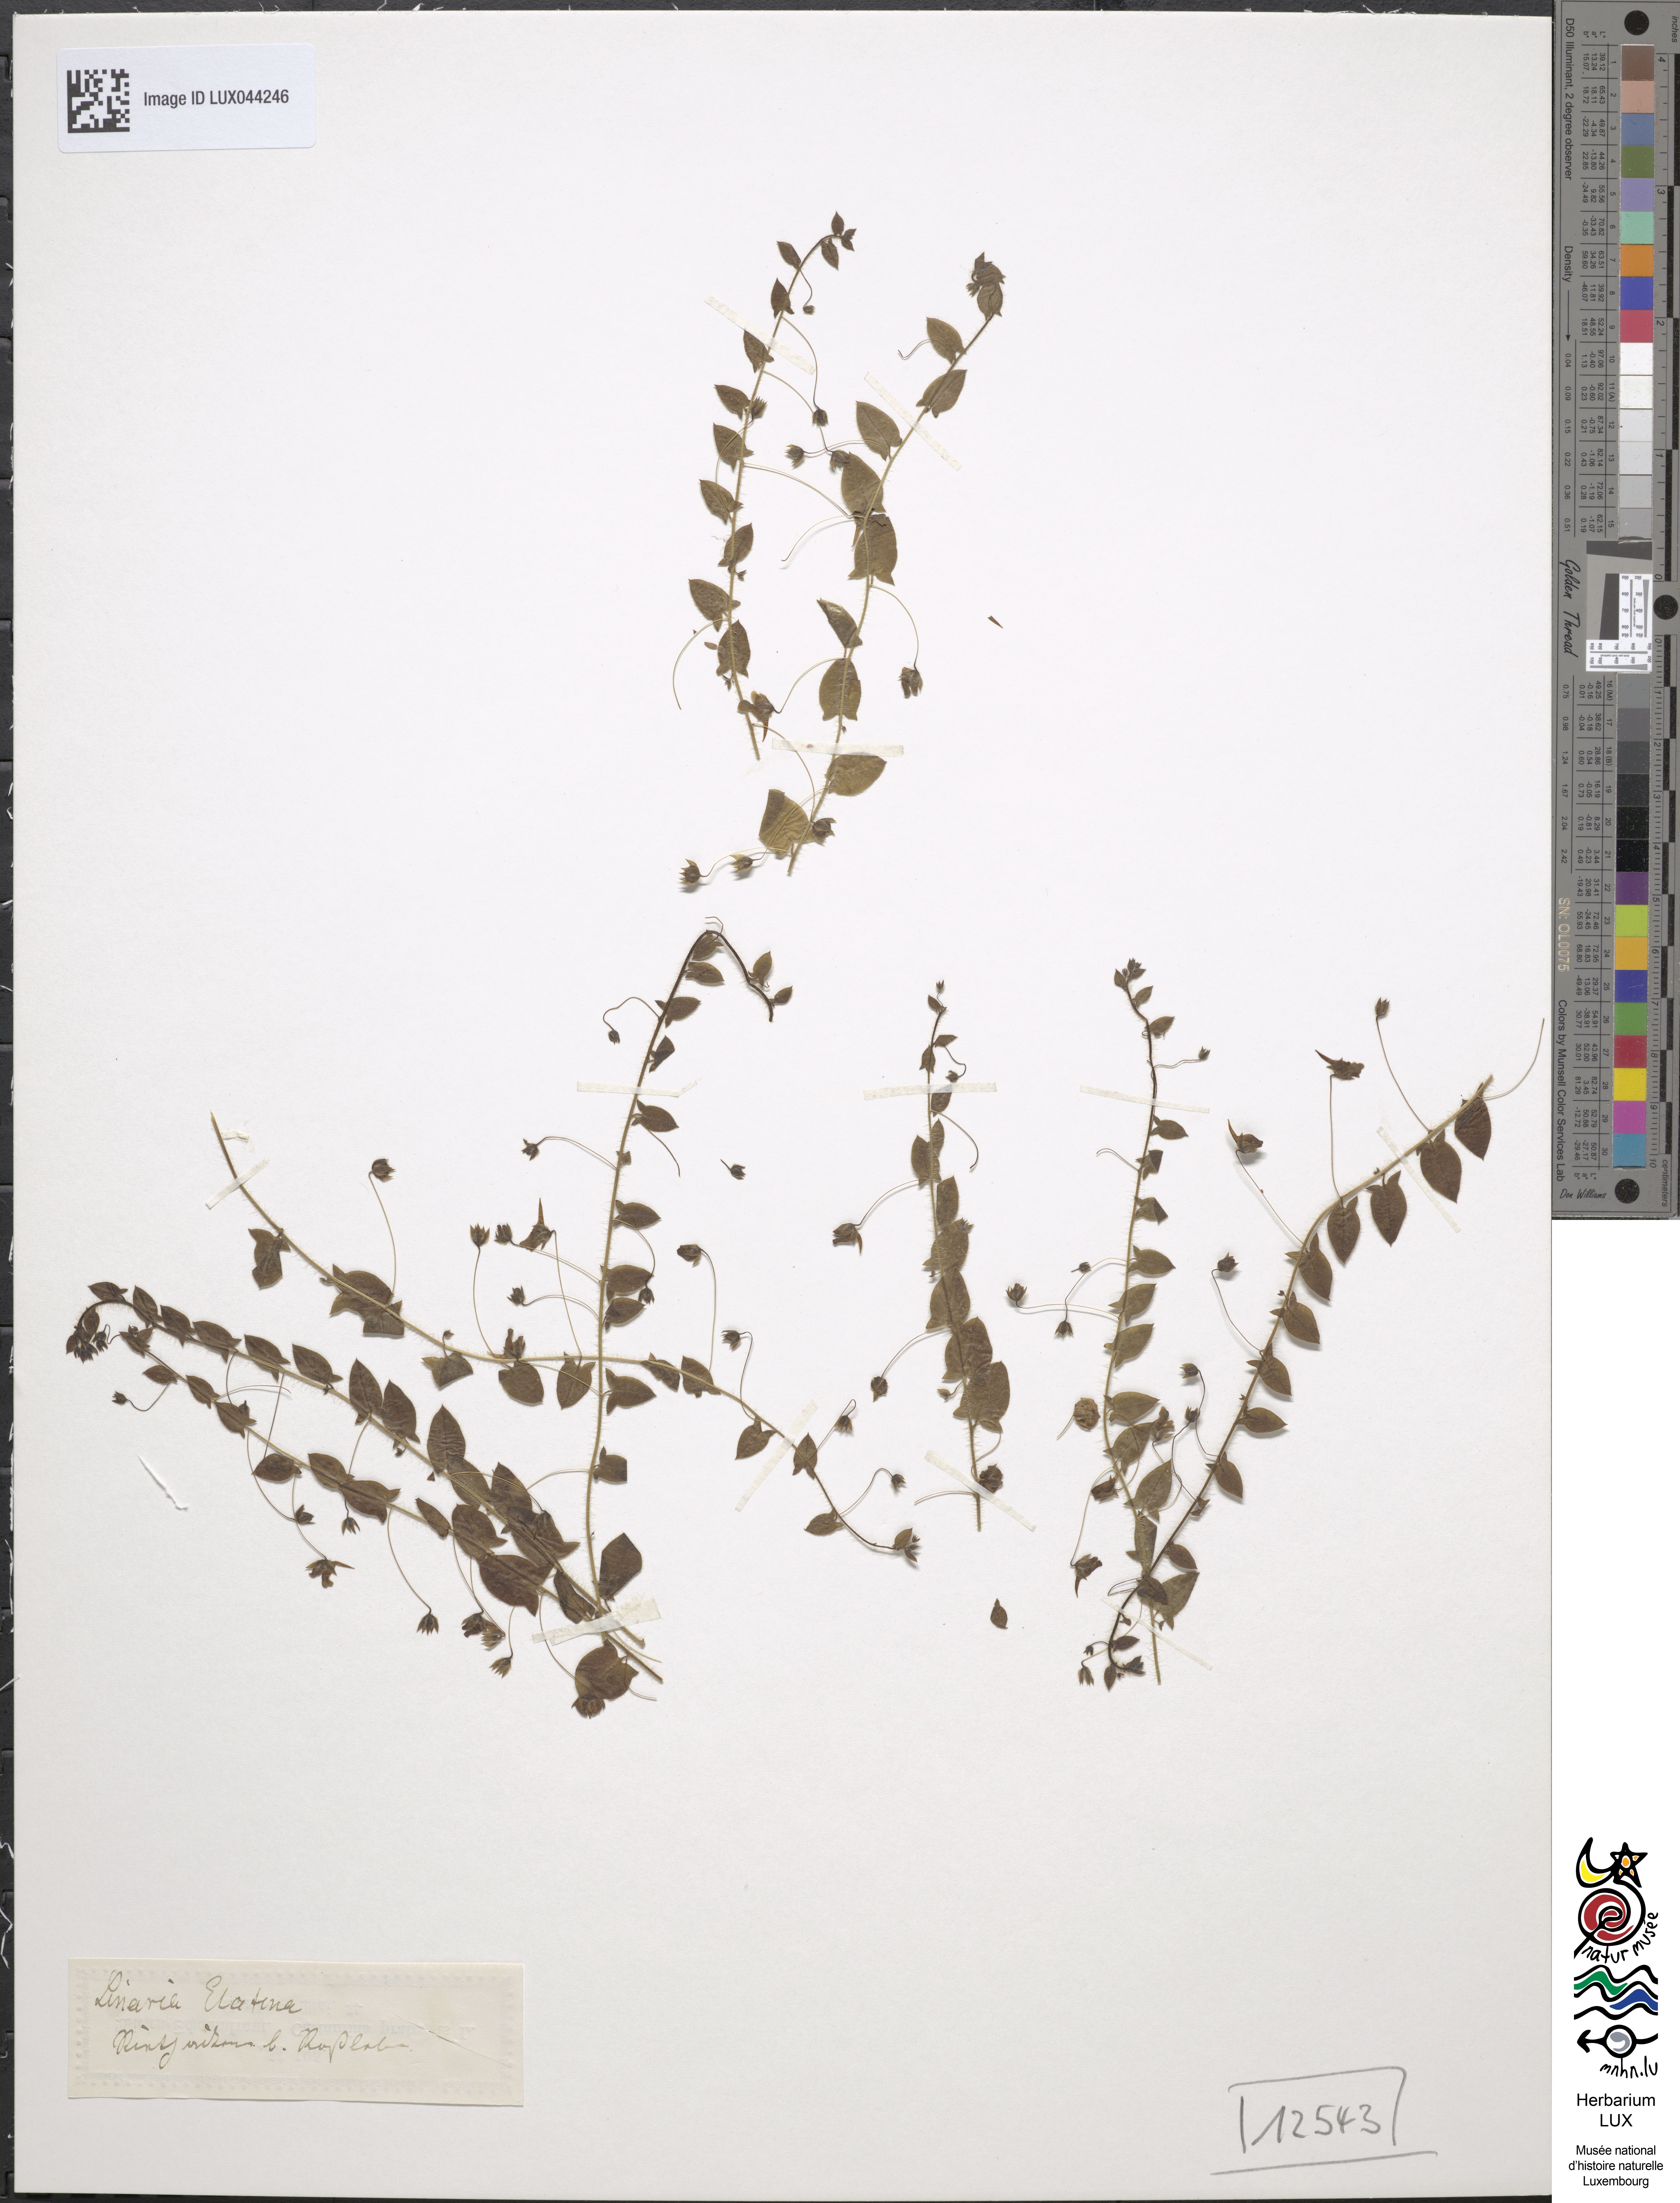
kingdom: Plantae
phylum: Tracheophyta
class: Magnoliopsida
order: Lamiales
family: Plantaginaceae
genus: Kickxia
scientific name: Kickxia elatine
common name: Sharp-leaved fluellen
